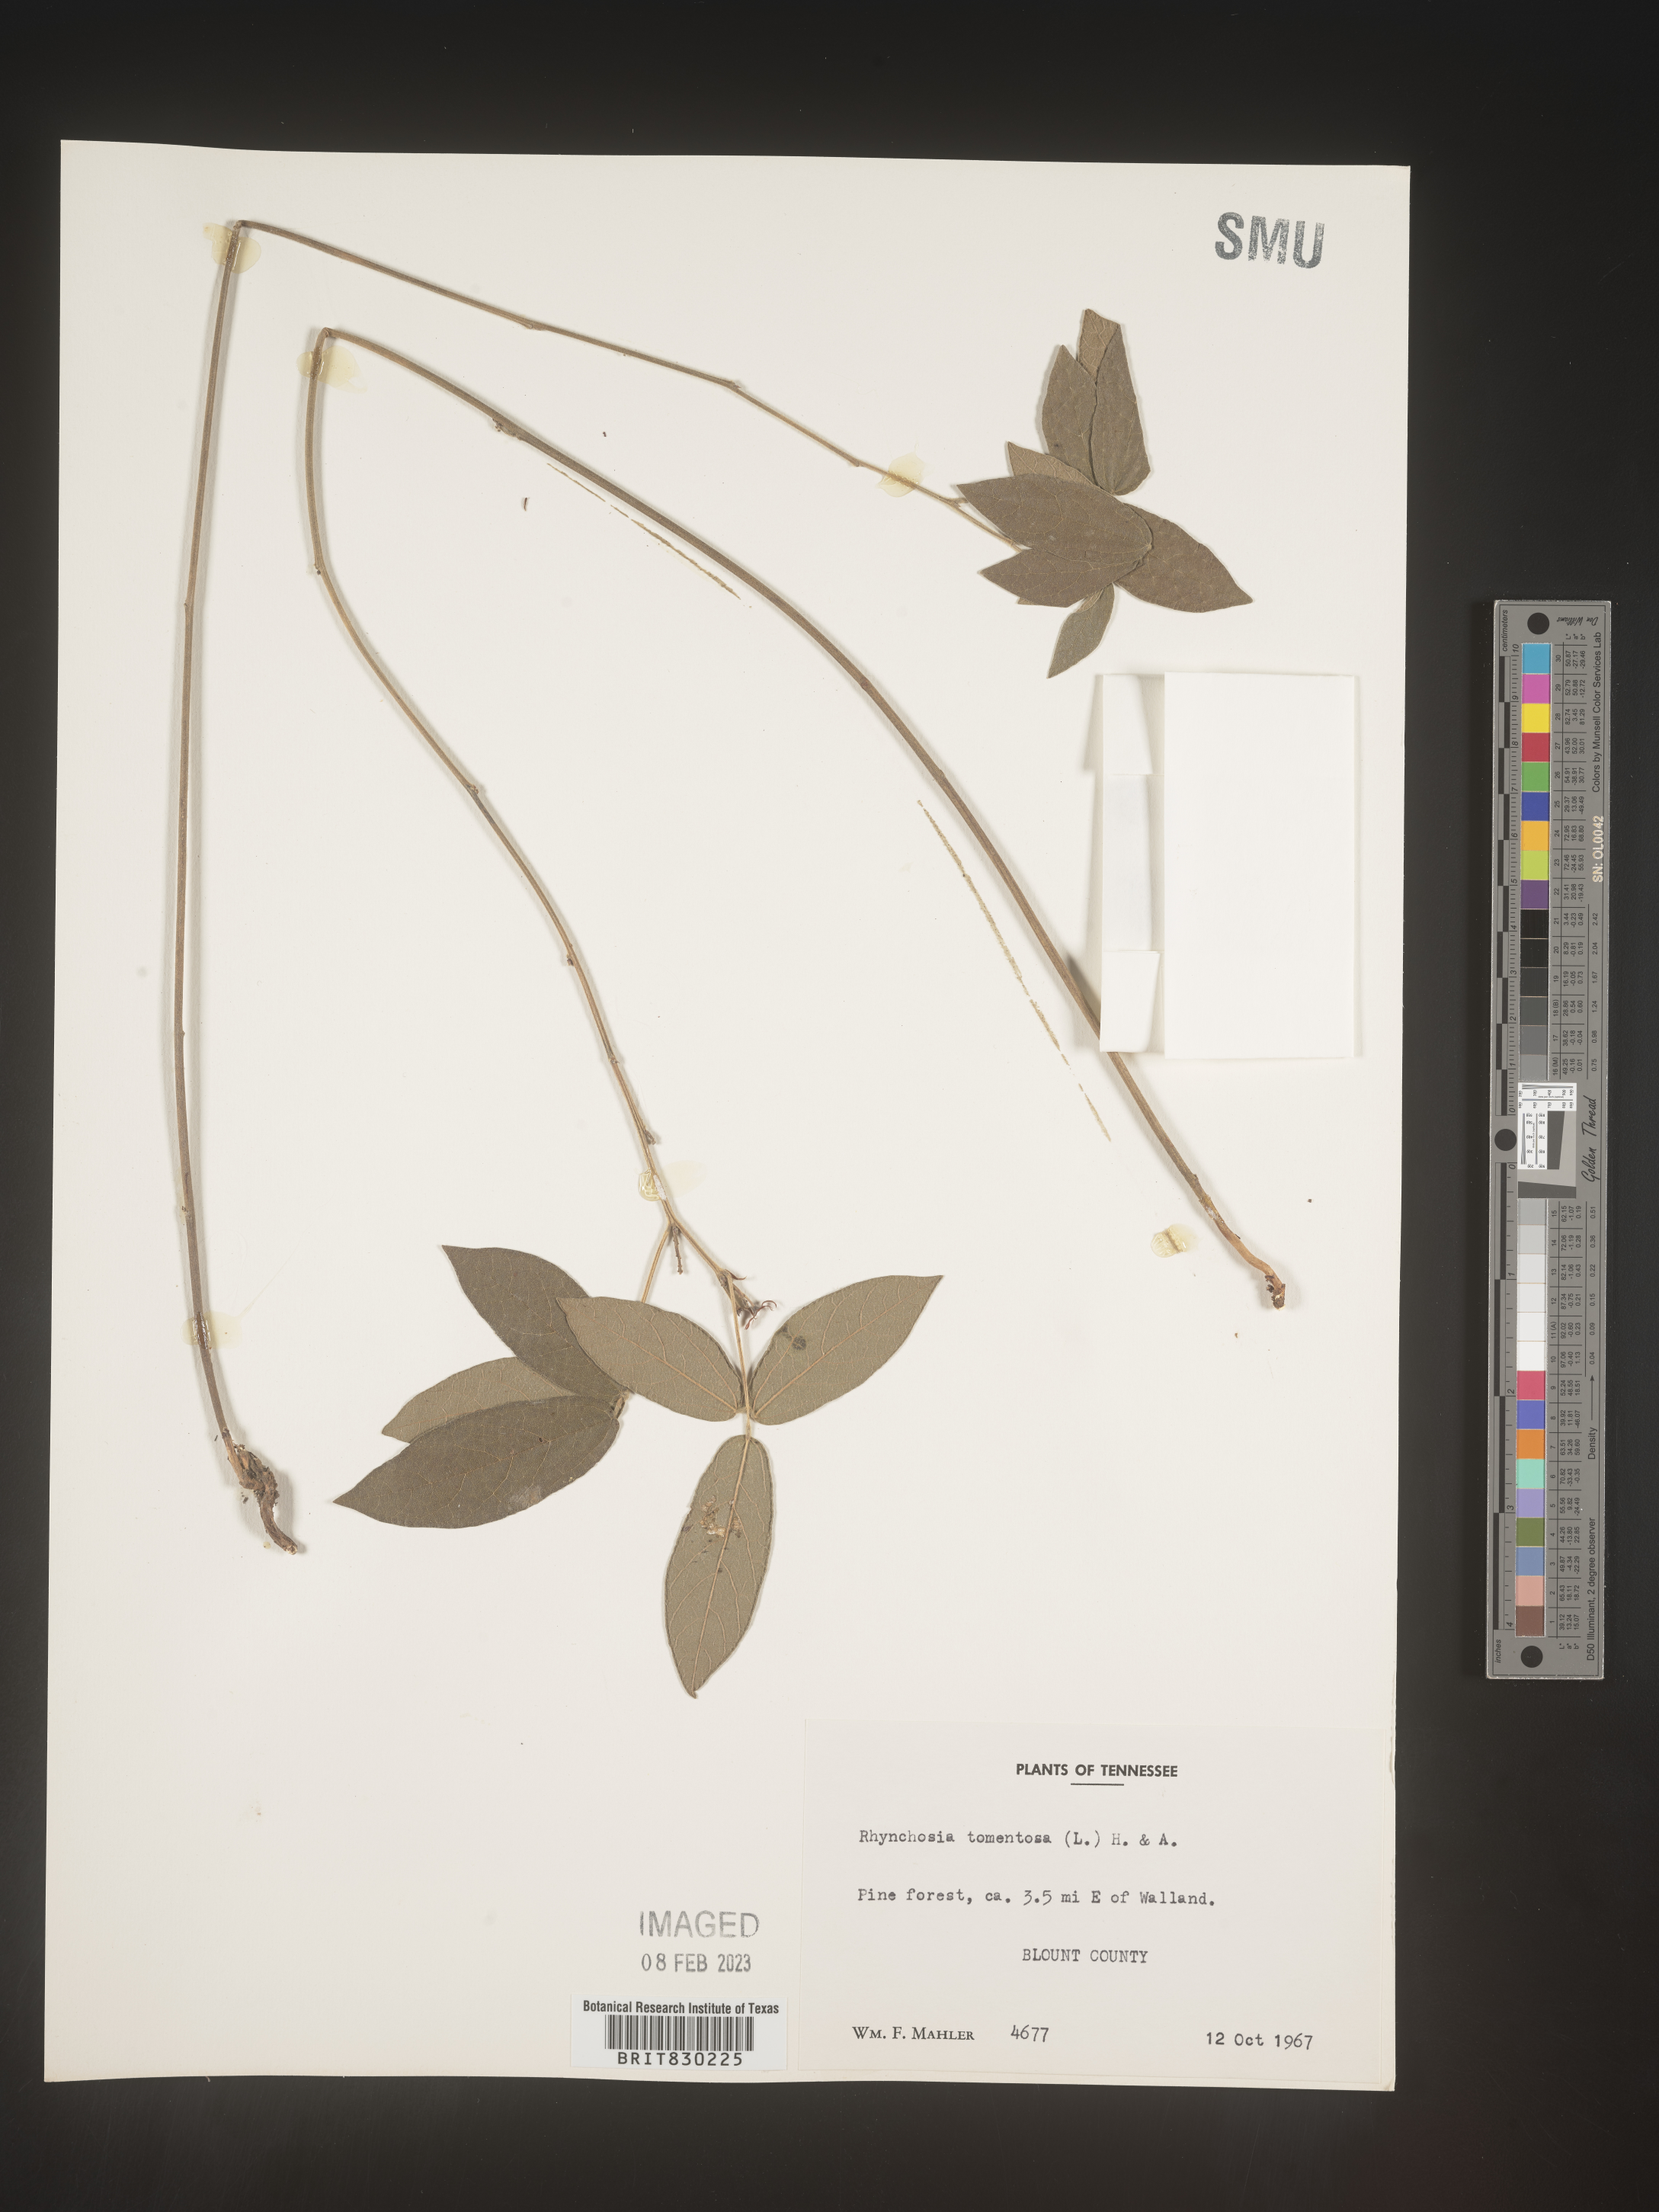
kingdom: Plantae
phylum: Tracheophyta
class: Magnoliopsida
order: Fabales
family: Fabaceae
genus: Rhynchosia
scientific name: Rhynchosia rothii
